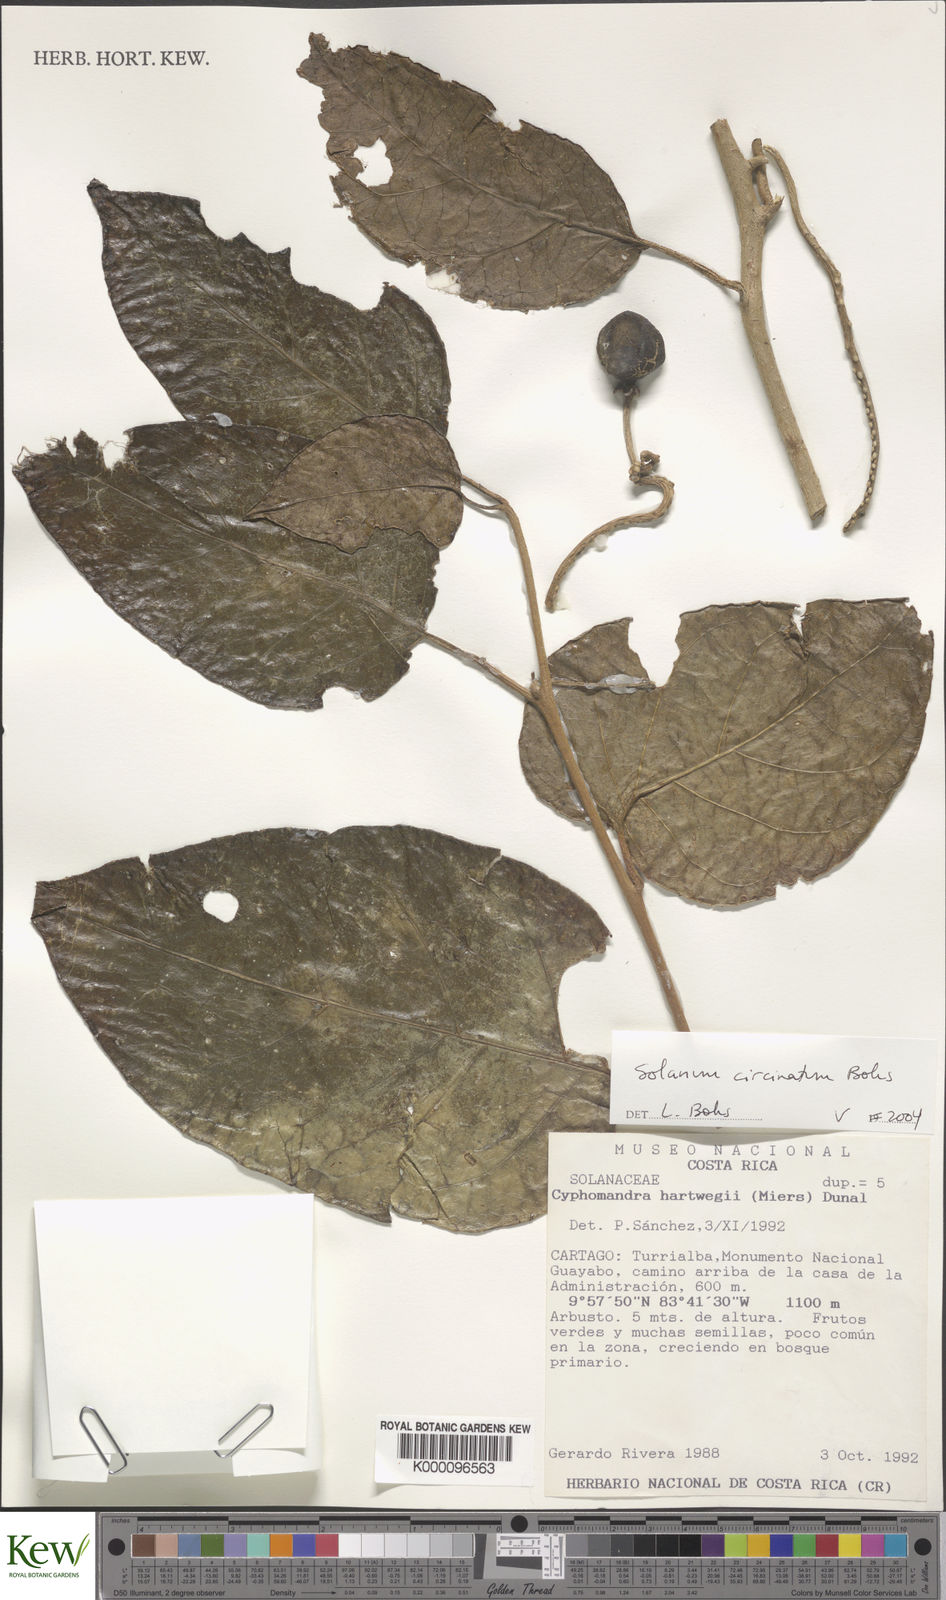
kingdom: Plantae
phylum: Tracheophyta
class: Magnoliopsida
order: Solanales
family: Solanaceae
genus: Solanum
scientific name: Solanum splendens
